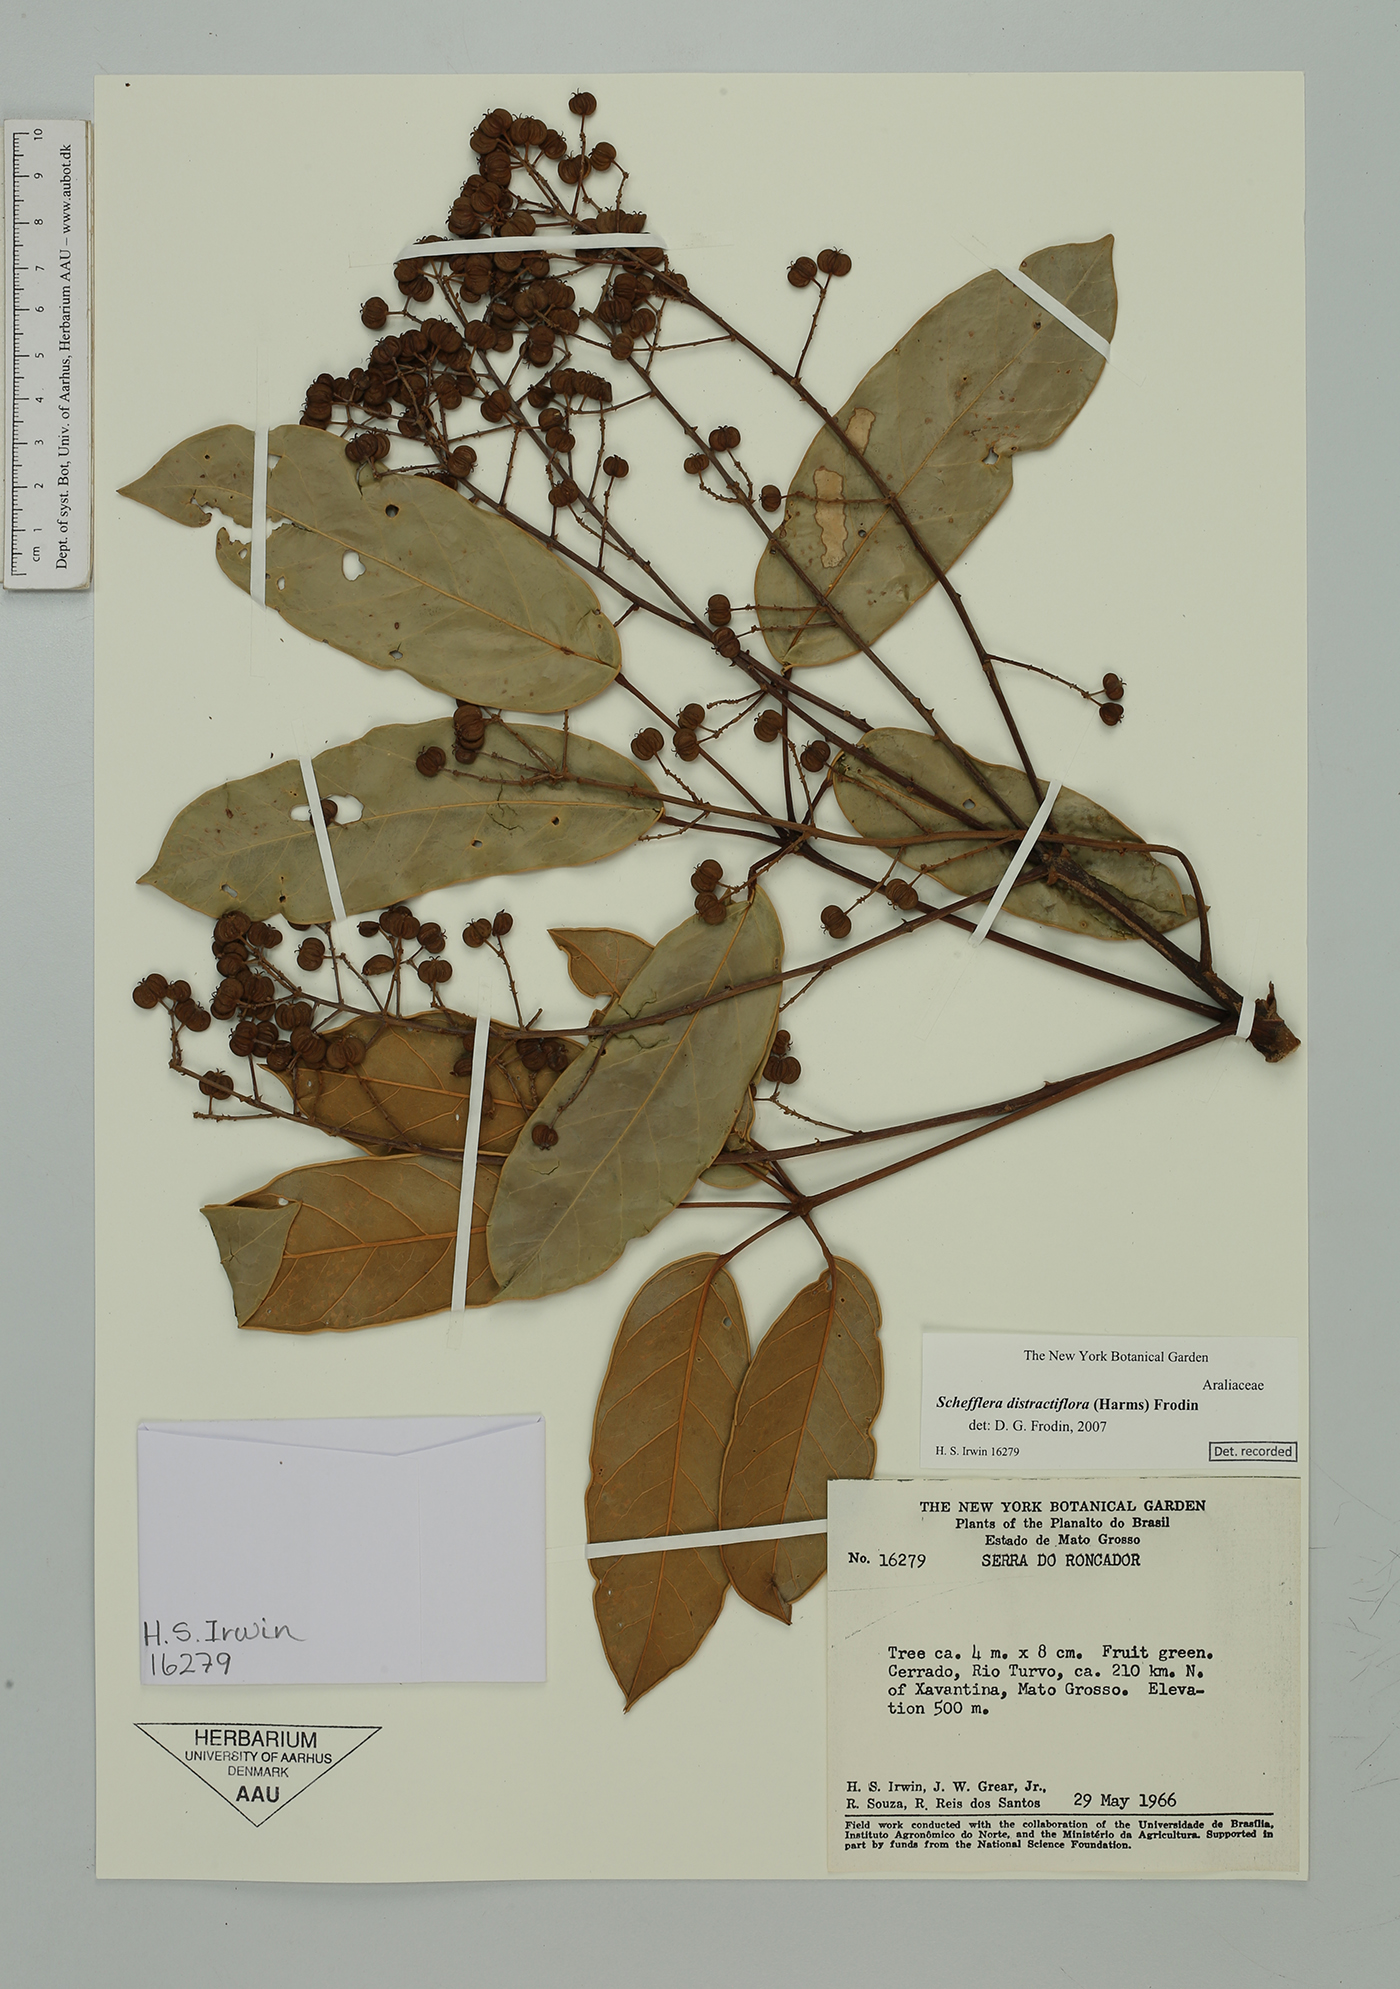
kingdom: Plantae
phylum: Tracheophyta
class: Magnoliopsida
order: Apiales
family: Araliaceae
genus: Didymopanax
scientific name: Didymopanax distractiflorus
